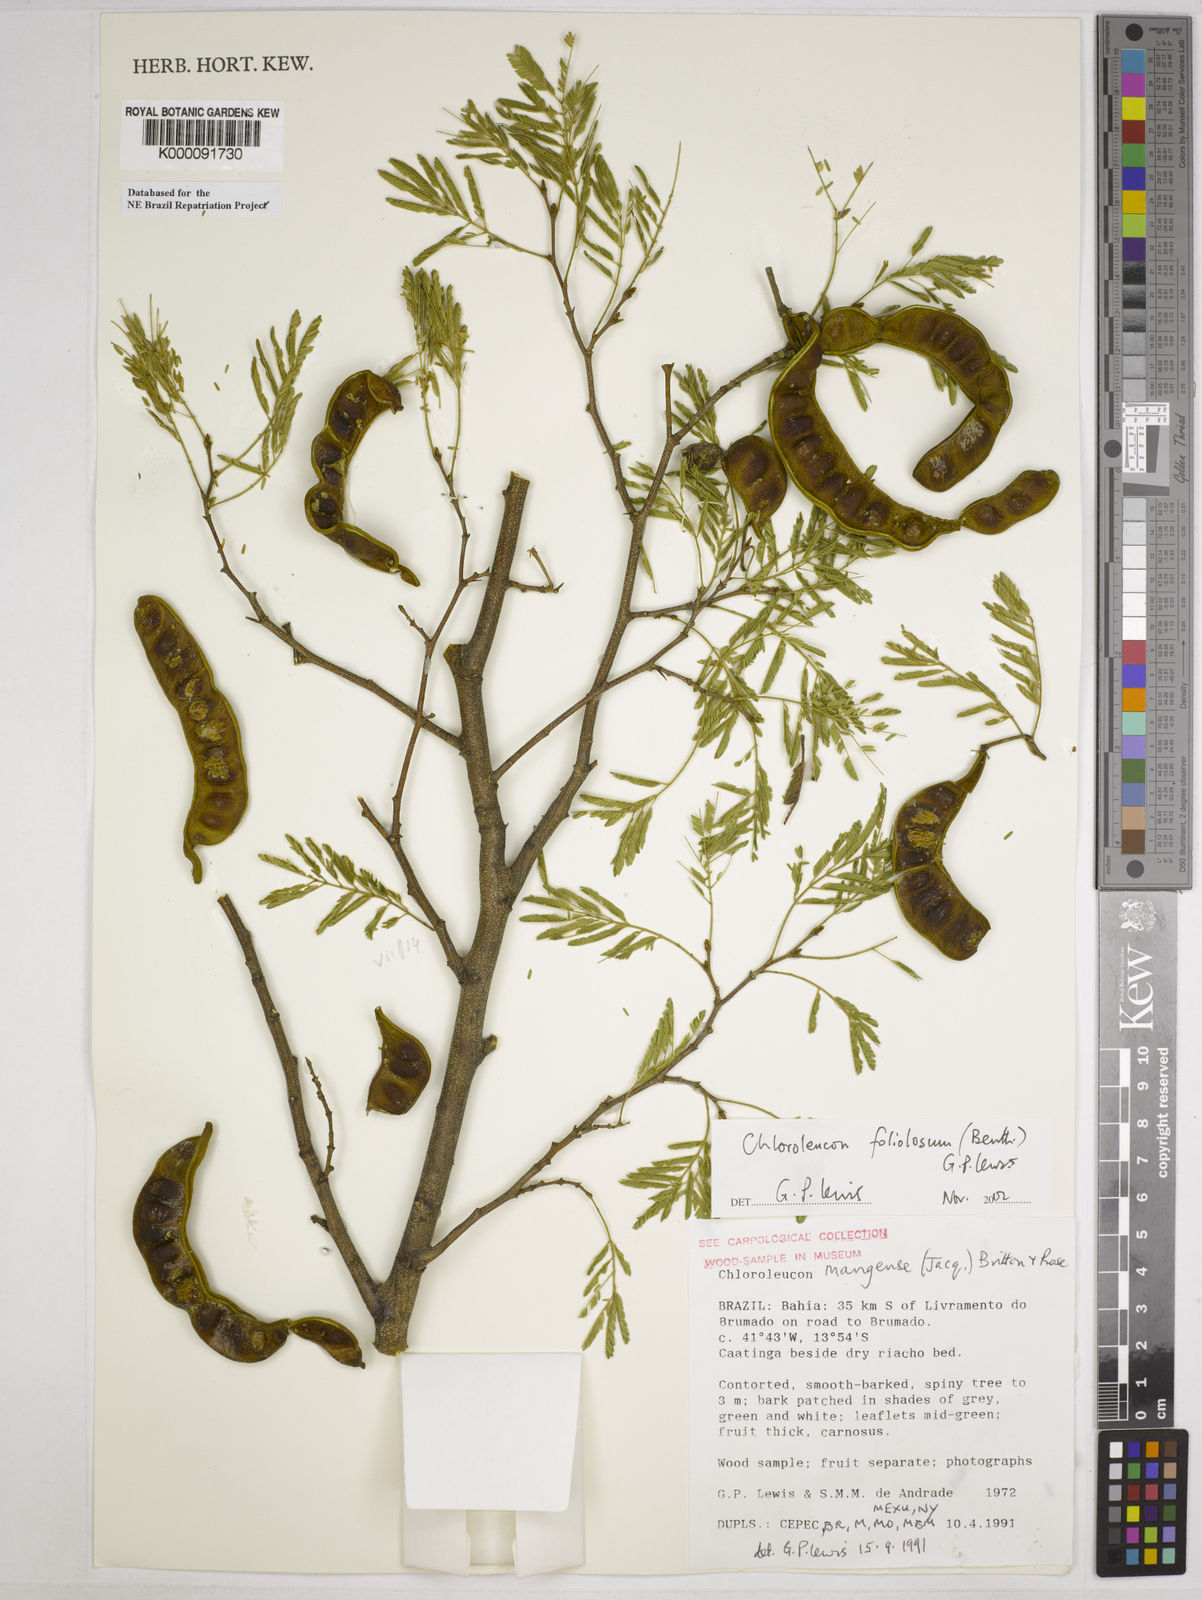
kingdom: Plantae
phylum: Tracheophyta
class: Magnoliopsida
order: Fabales
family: Fabaceae
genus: Chloroleucon
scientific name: Chloroleucon foliolosum
